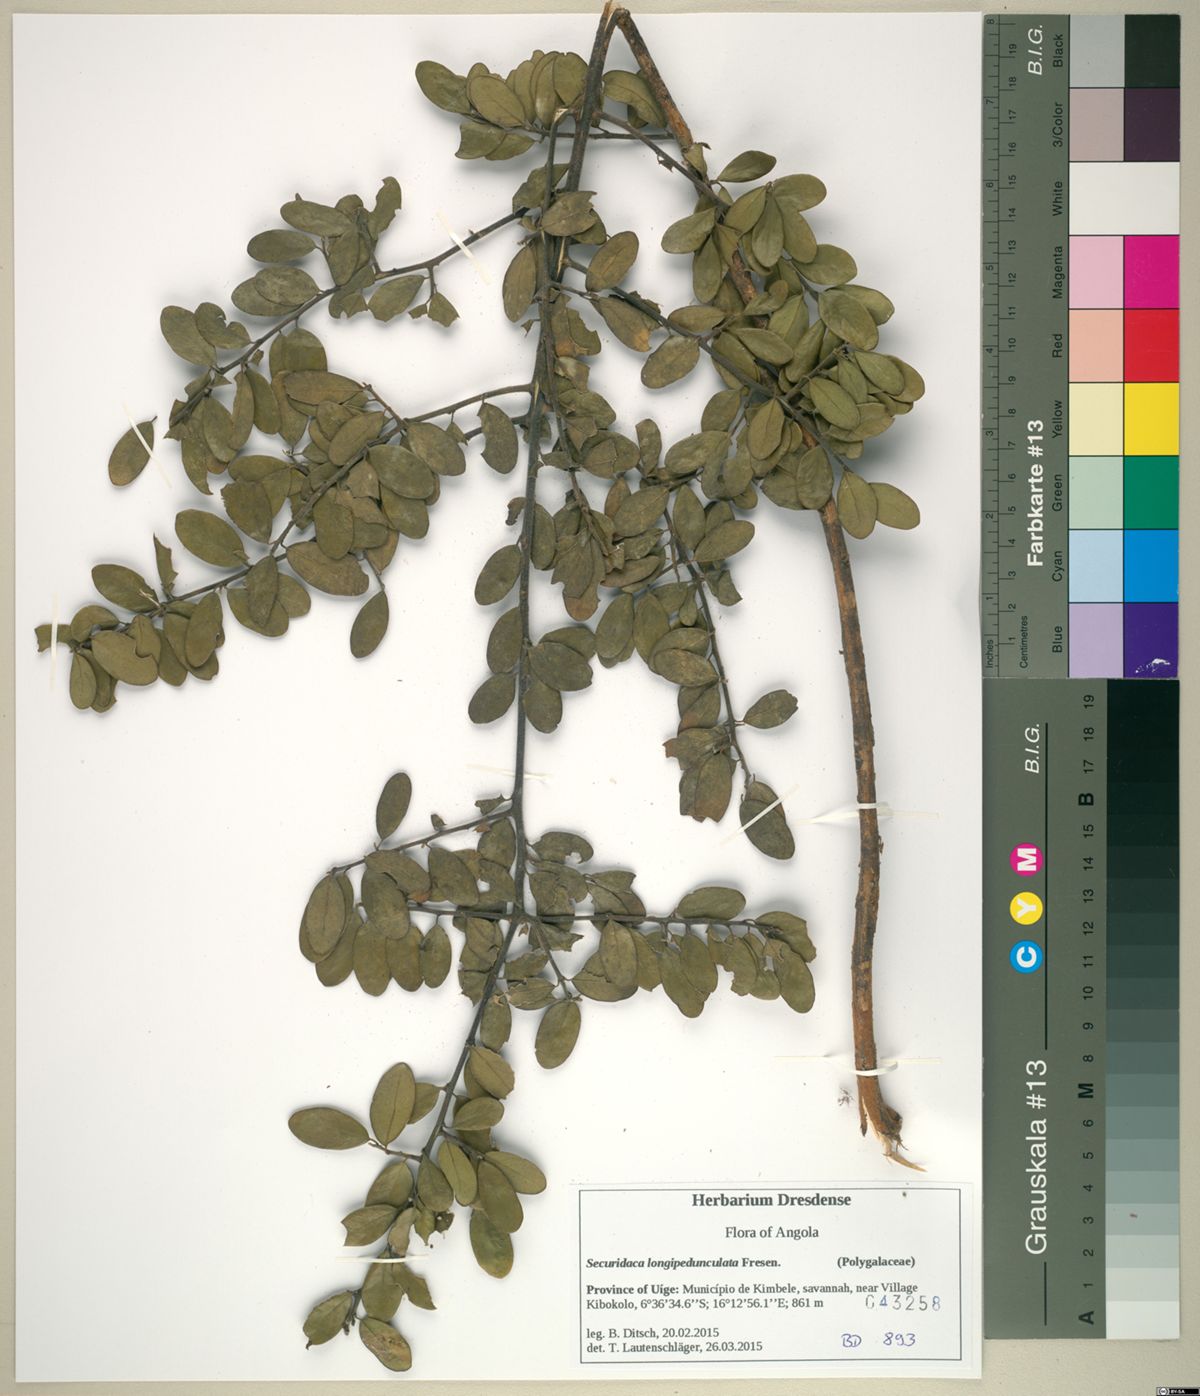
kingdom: Plantae
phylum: Tracheophyta
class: Magnoliopsida
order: Fabales
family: Polygalaceae
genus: Securidaca
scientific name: Securidaca longepedunculata
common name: Violet tree
